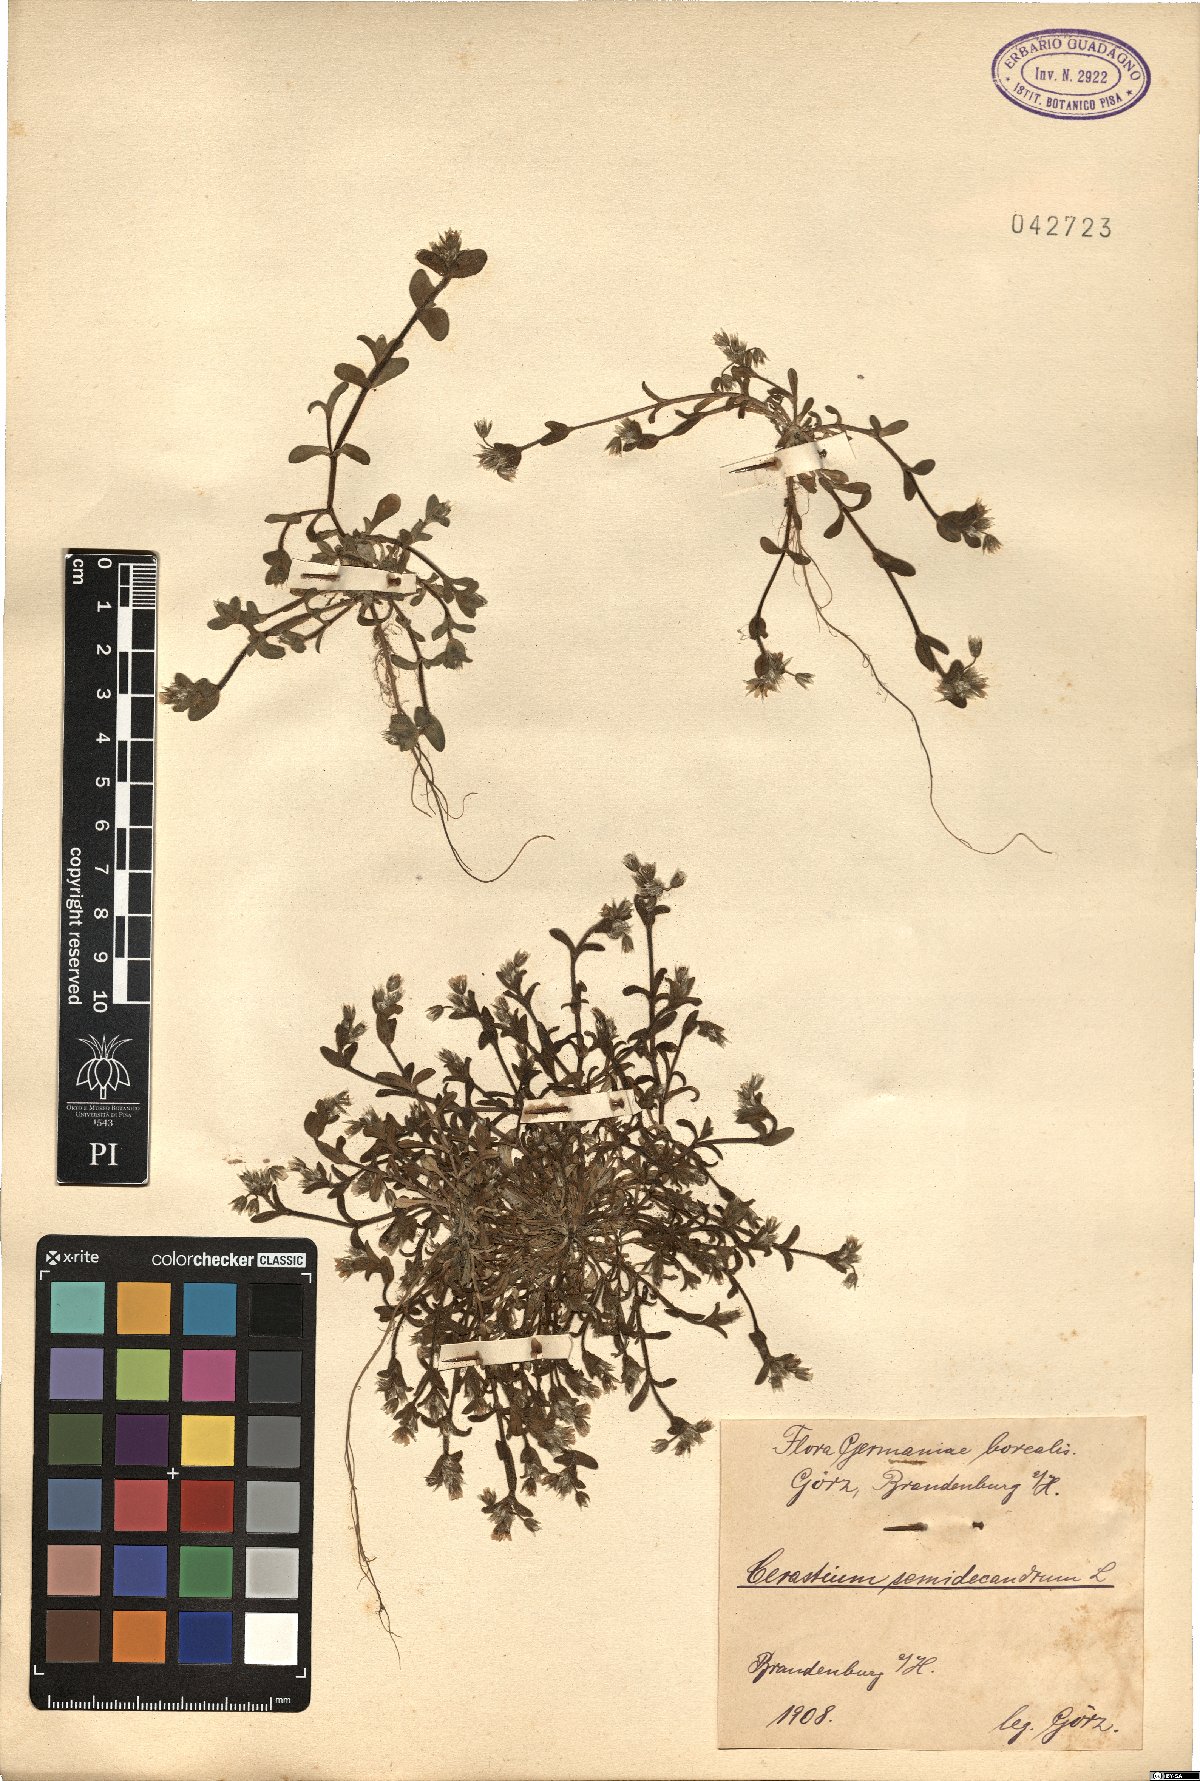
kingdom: Plantae
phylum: Tracheophyta
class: Magnoliopsida
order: Caryophyllales
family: Caryophyllaceae
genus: Cerastium
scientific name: Cerastium semidecandrum
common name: Little mouse-ear
